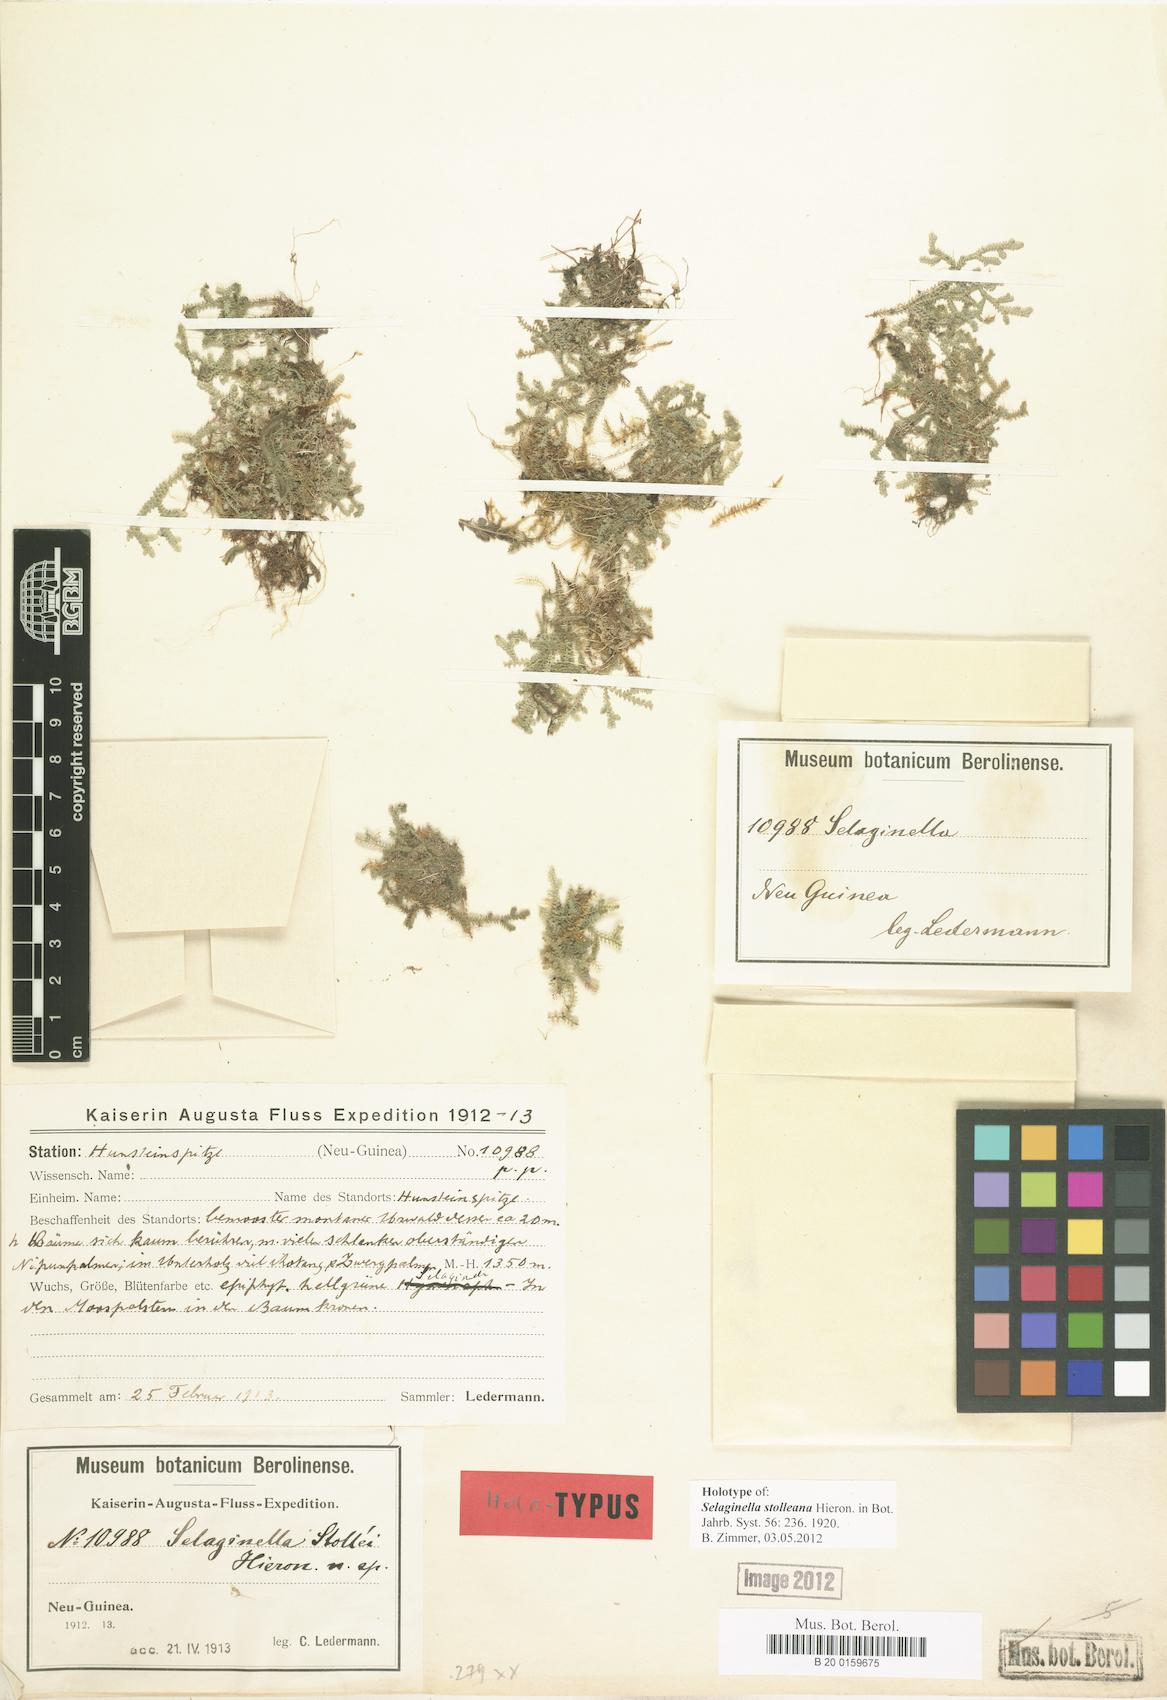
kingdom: Plantae
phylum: Tracheophyta
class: Lycopodiopsida
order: Selaginellales
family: Selaginellaceae
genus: Selaginella
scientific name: Selaginella stolleana
